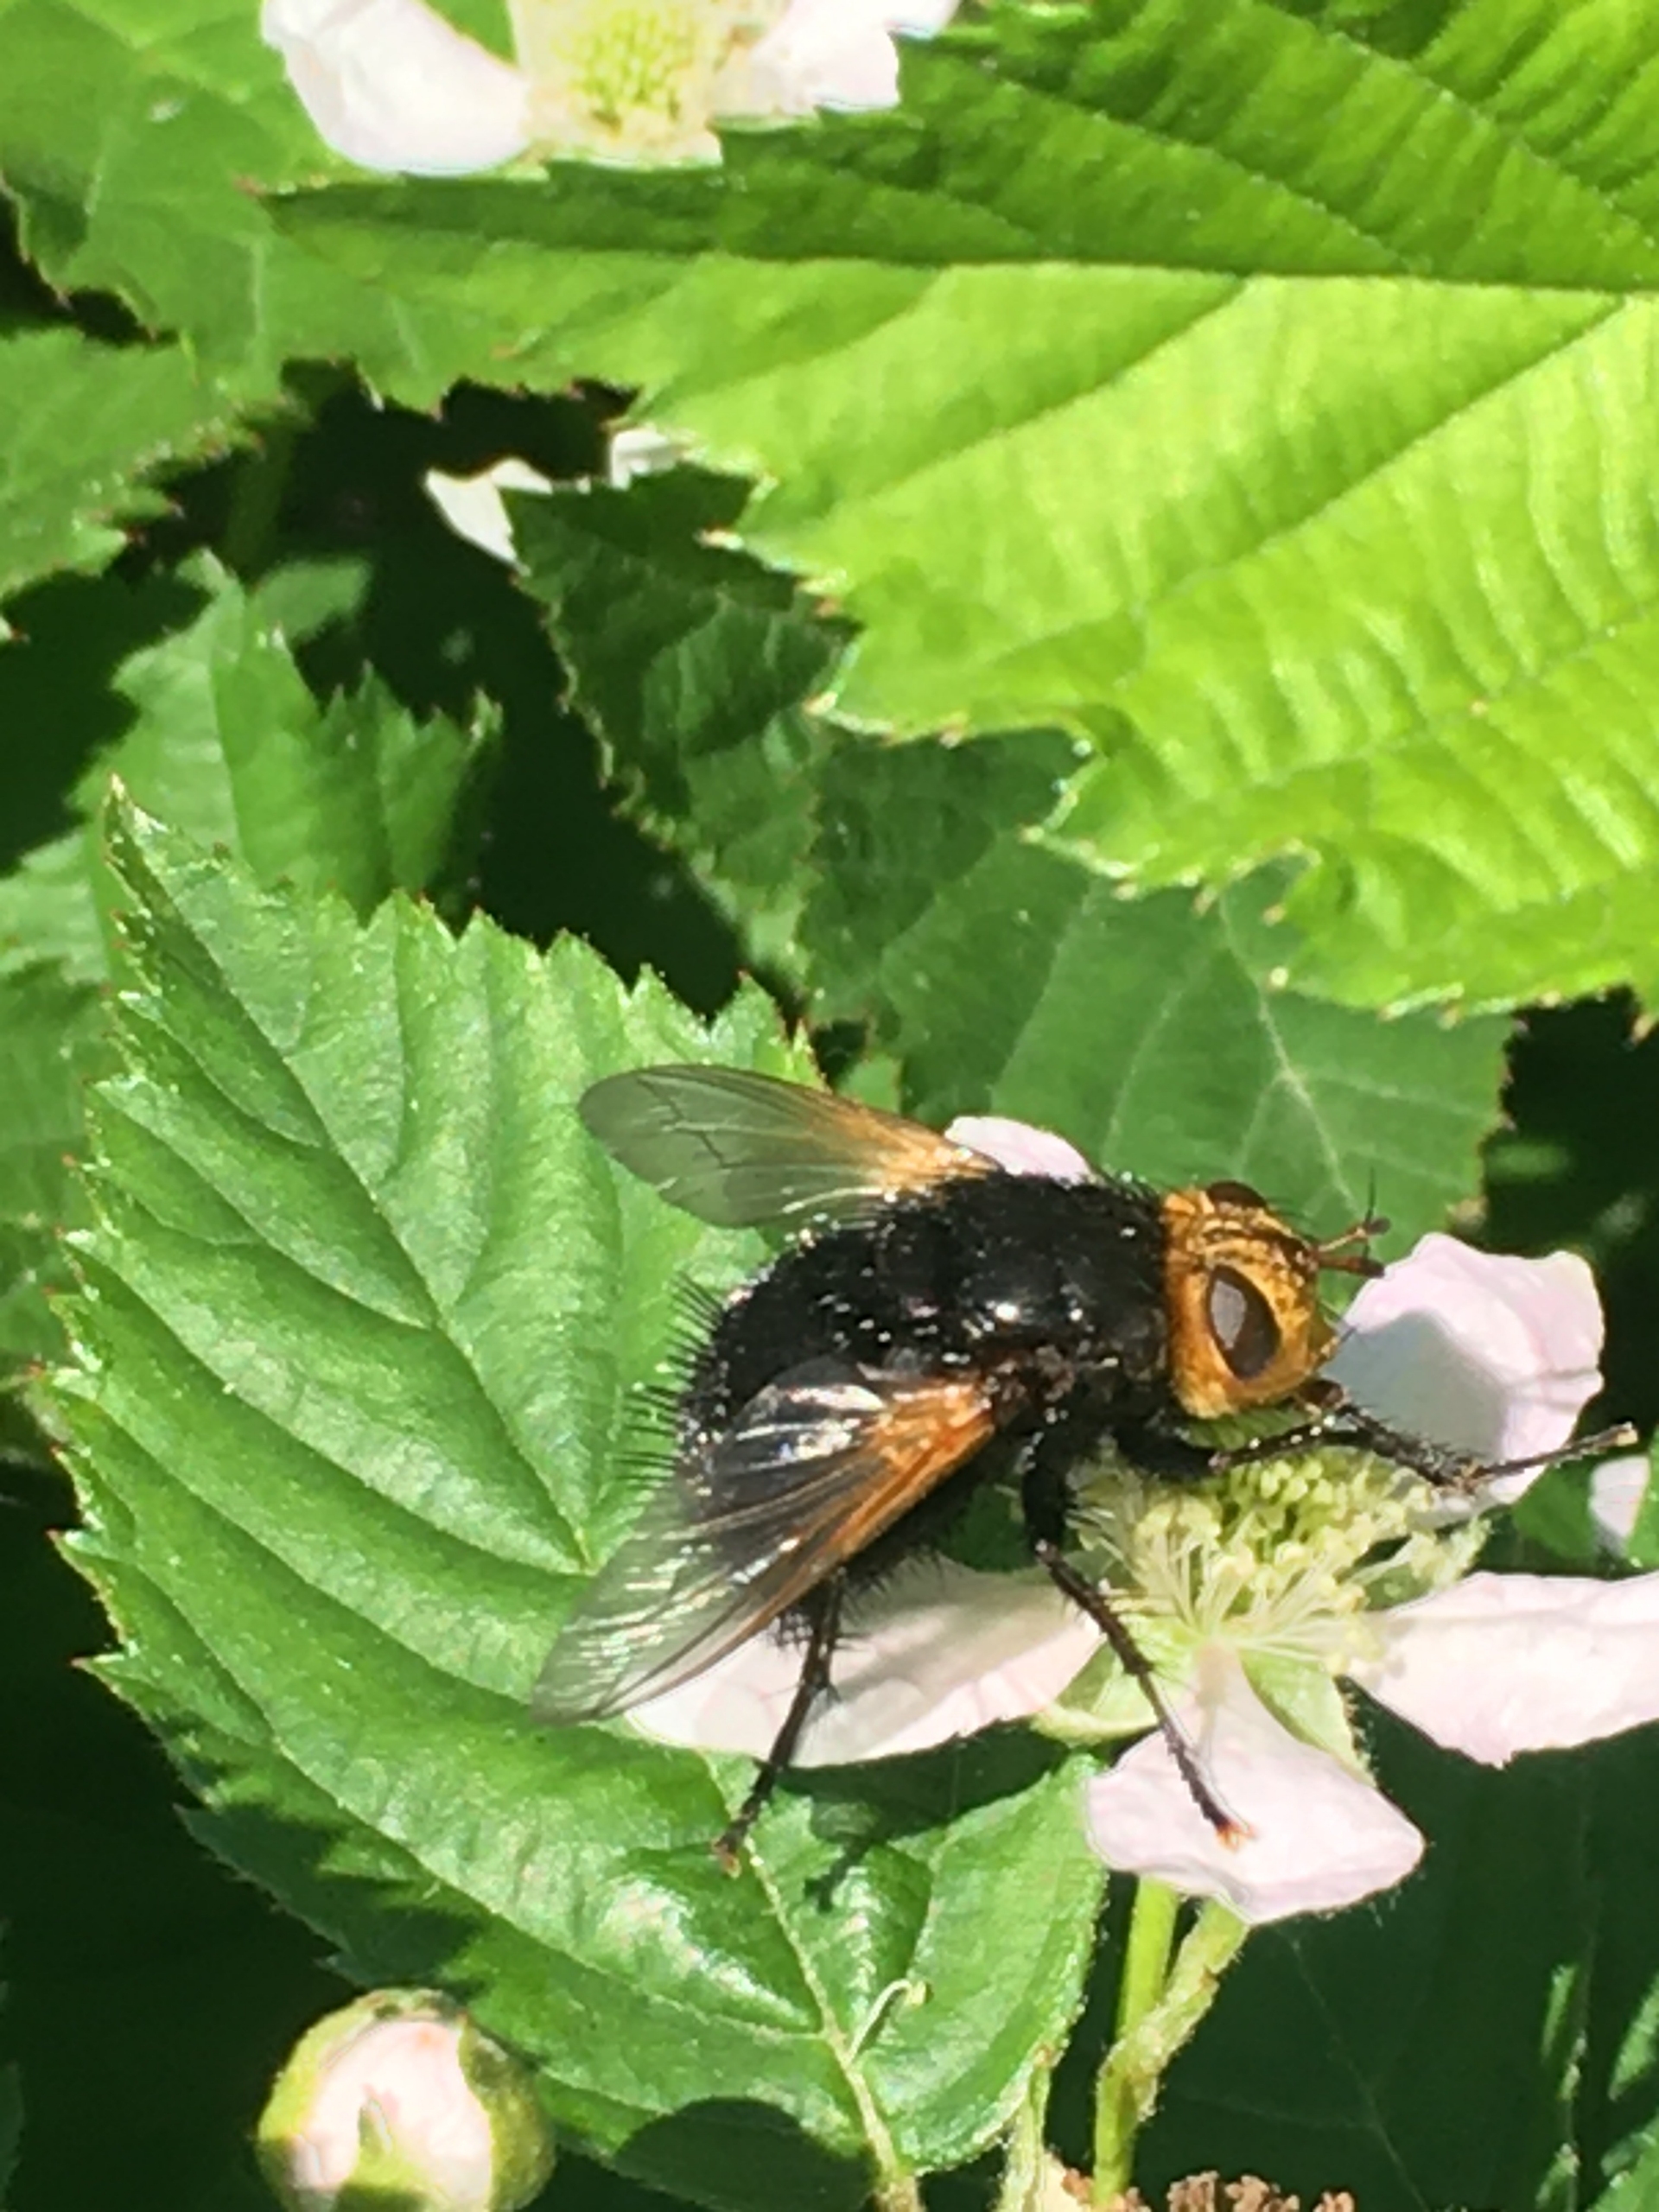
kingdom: Animalia
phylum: Arthropoda
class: Insecta
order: Diptera
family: Tachinidae
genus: Tachina
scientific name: Tachina grossa
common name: Kæmpefluen Harald
